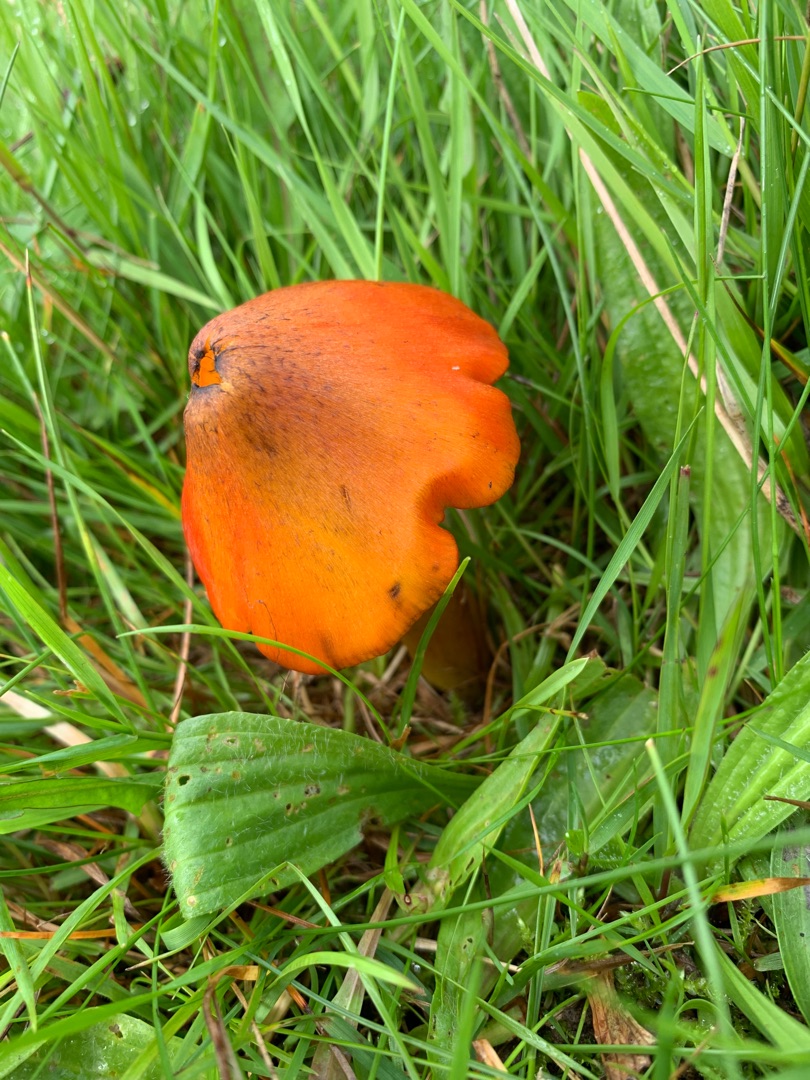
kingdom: Fungi
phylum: Basidiomycota
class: Agaricomycetes
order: Agaricales
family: Hygrophoraceae
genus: Hygrocybe
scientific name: Hygrocybe conica
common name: Kegle-vokshat
